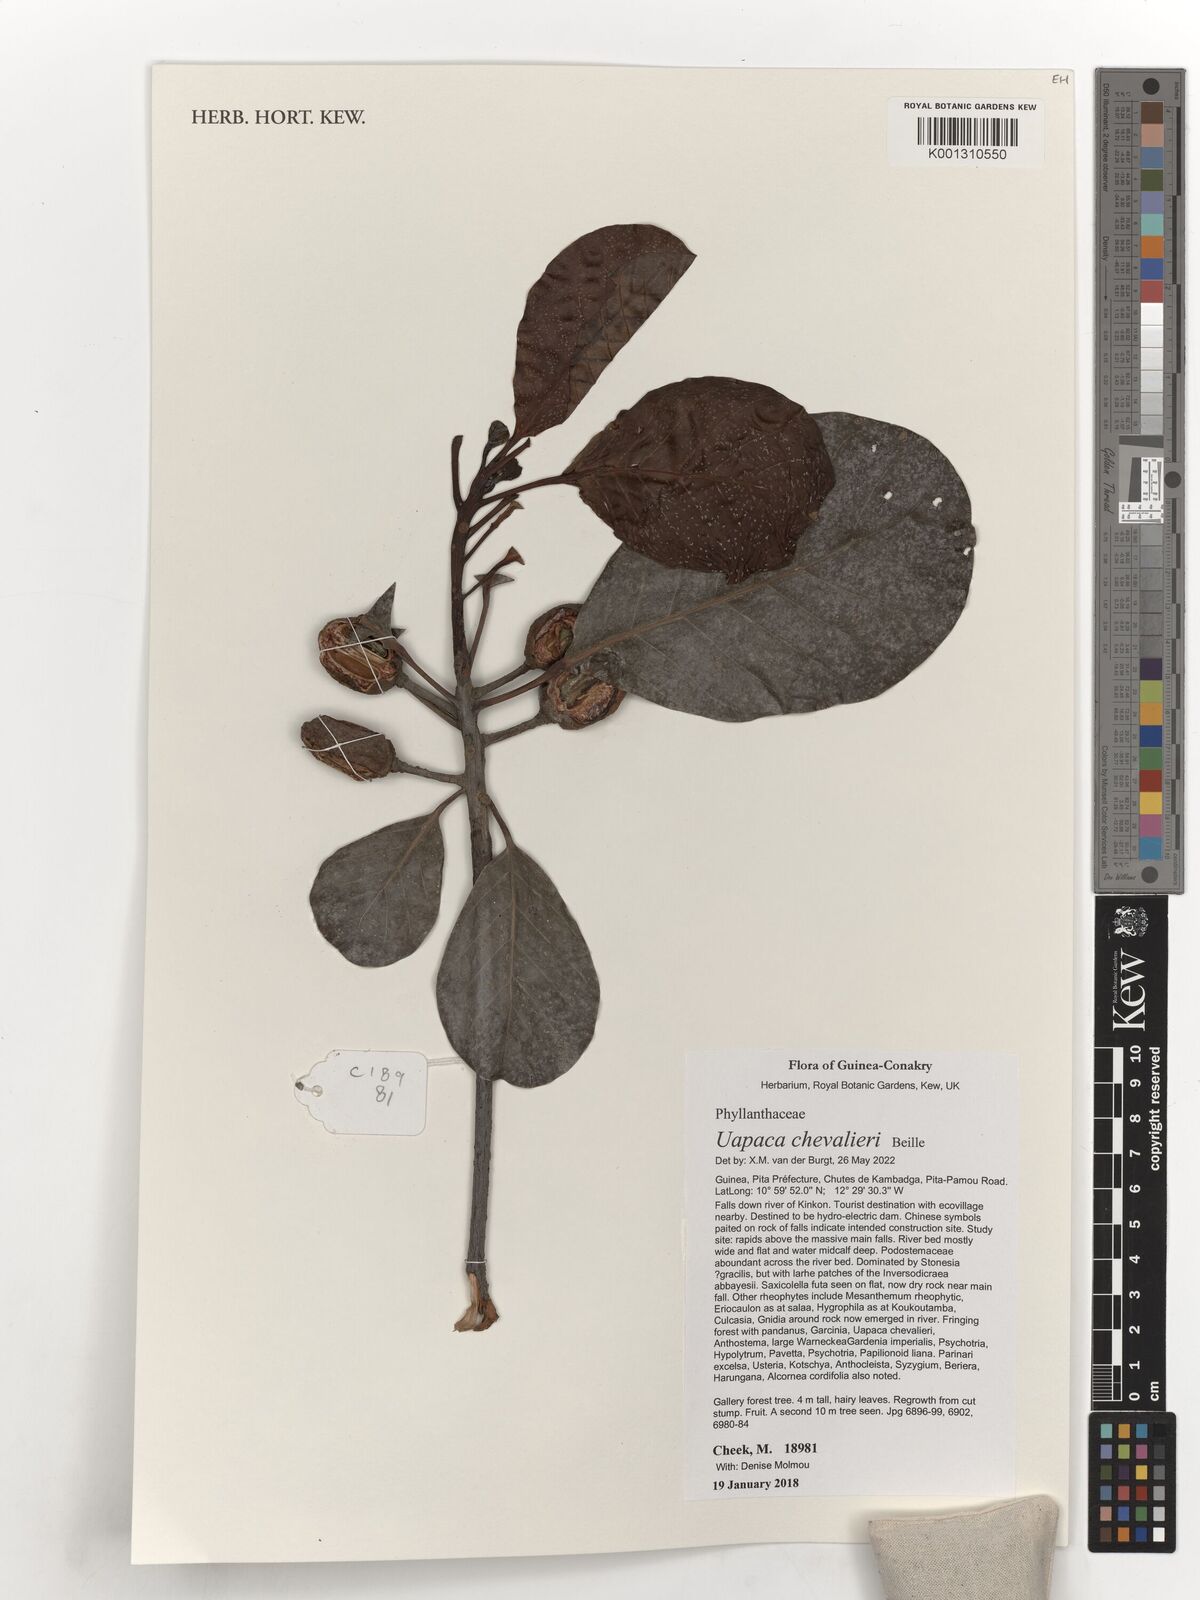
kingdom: Plantae
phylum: Tracheophyta
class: Magnoliopsida
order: Malpighiales
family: Phyllanthaceae
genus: Uapaca
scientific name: Uapaca togoensis
